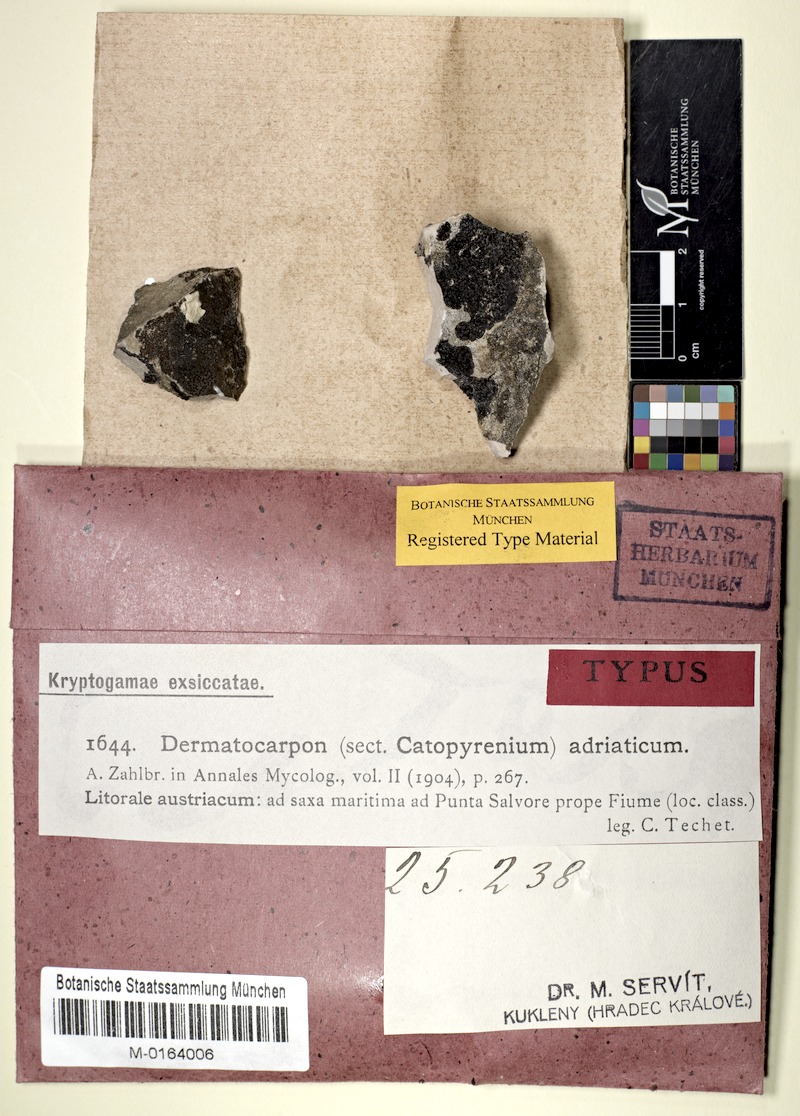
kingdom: Fungi
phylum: Ascomycota
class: Eurotiomycetes
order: Verrucariales
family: Verrucariaceae
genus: Hydropunctaria
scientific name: Hydropunctaria adriatica
